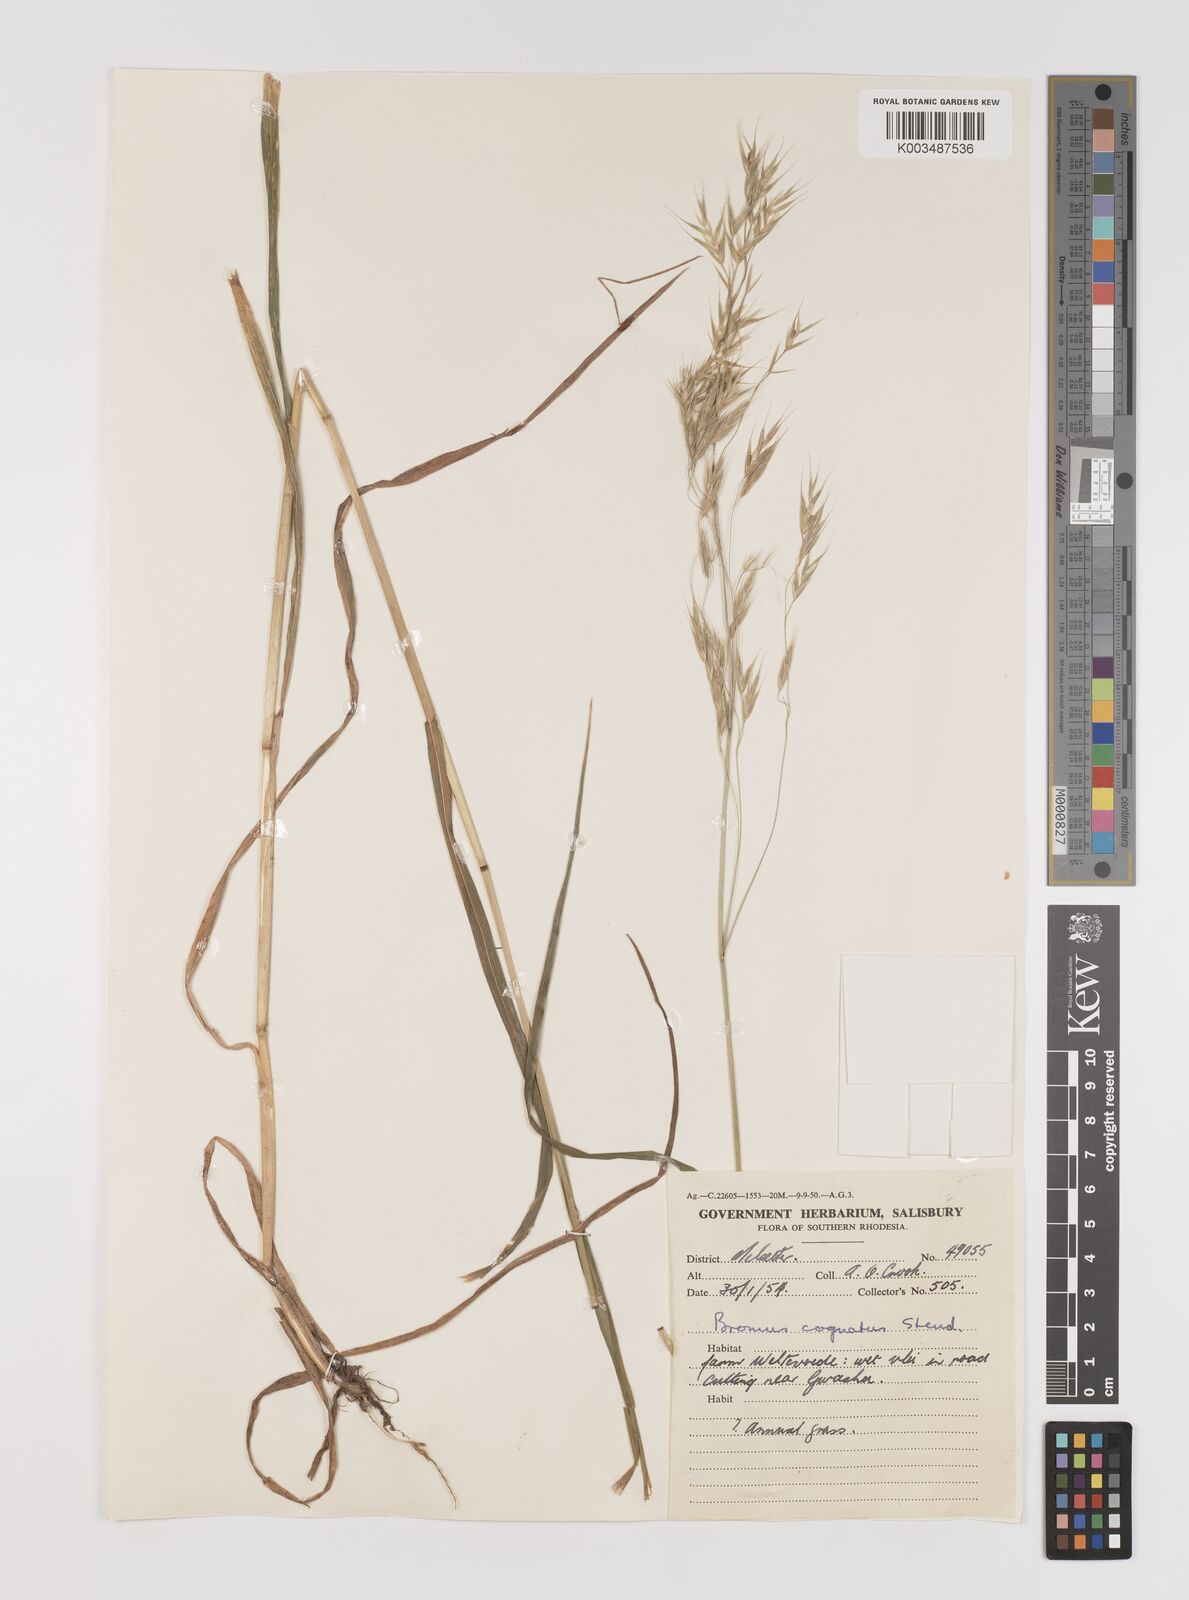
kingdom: Plantae
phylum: Tracheophyta
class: Liliopsida
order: Poales
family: Poaceae
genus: Bromus
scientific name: Bromus leptoclados
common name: Mountain bromegrass
